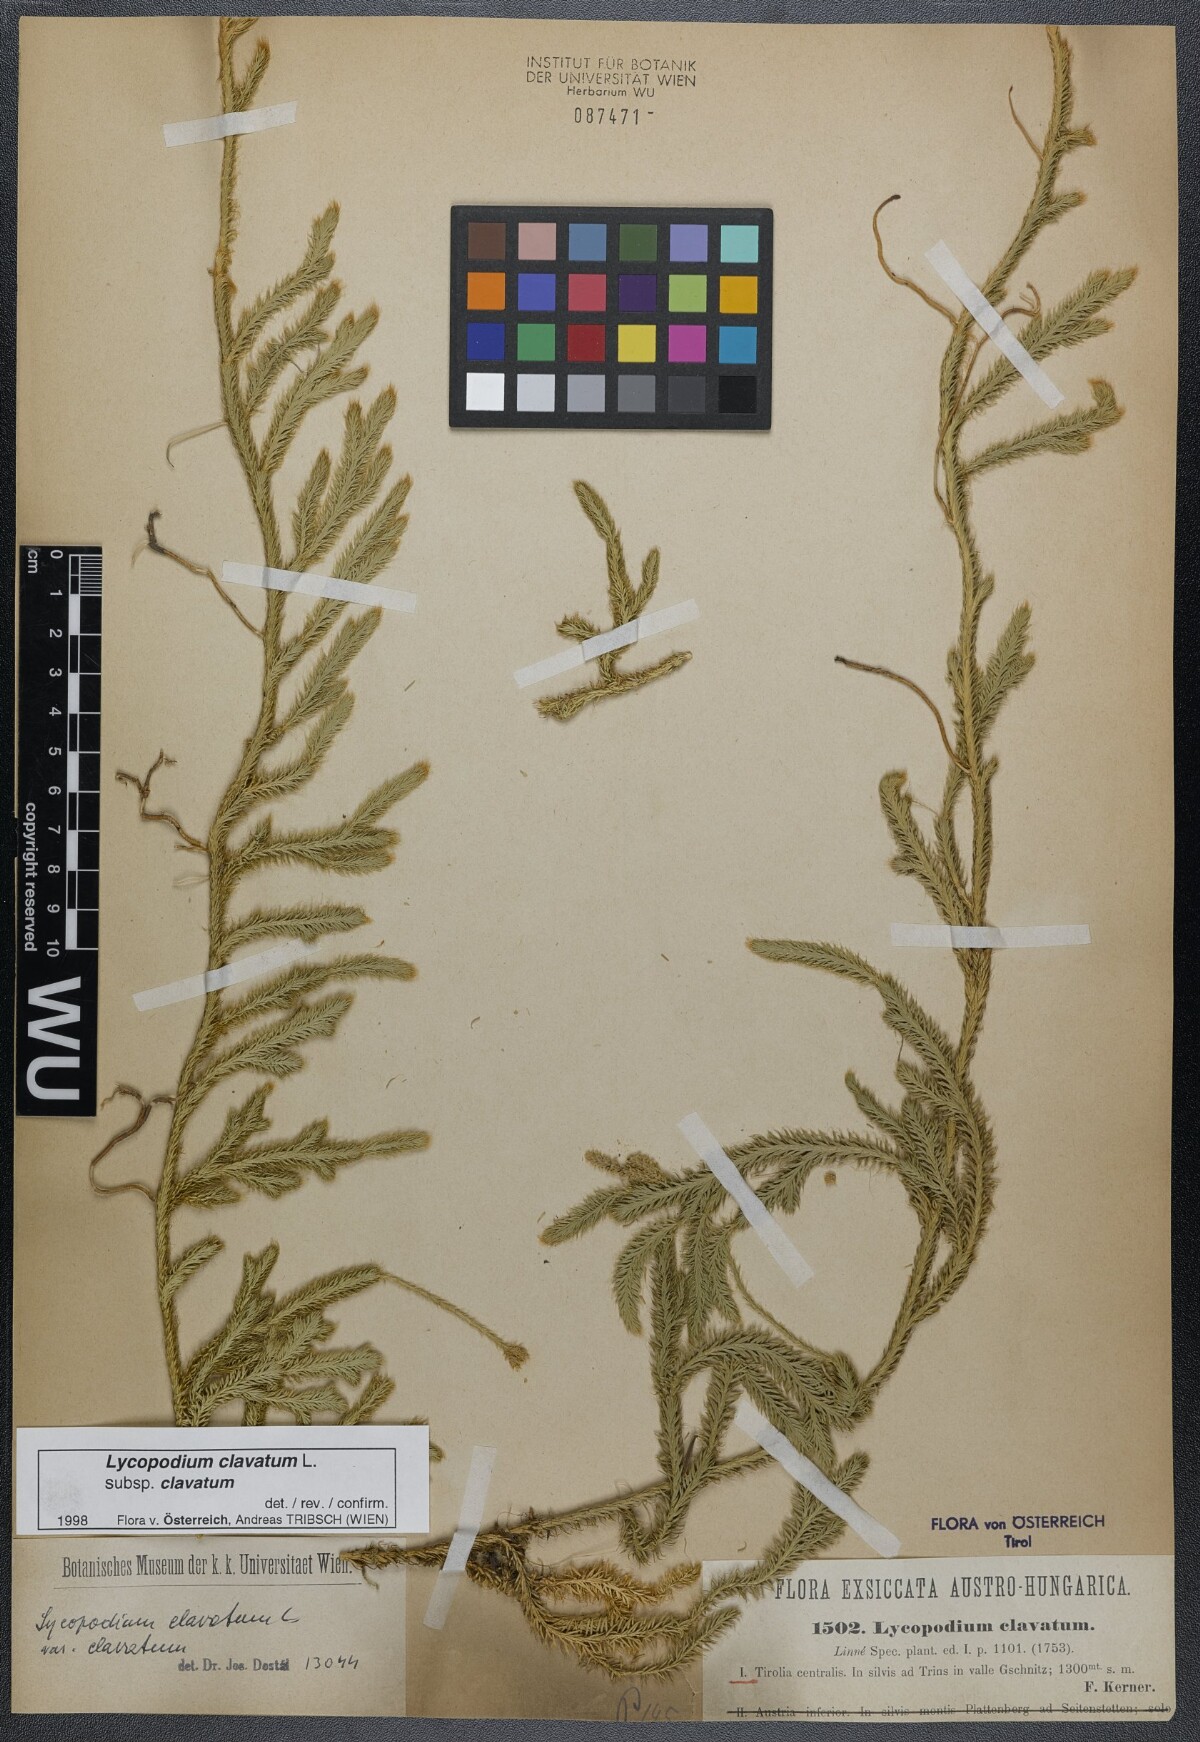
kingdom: Plantae
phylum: Tracheophyta
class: Lycopodiopsida
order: Lycopodiales
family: Lycopodiaceae
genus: Lycopodium
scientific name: Lycopodium clavatum
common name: Stag's-horn clubmoss
